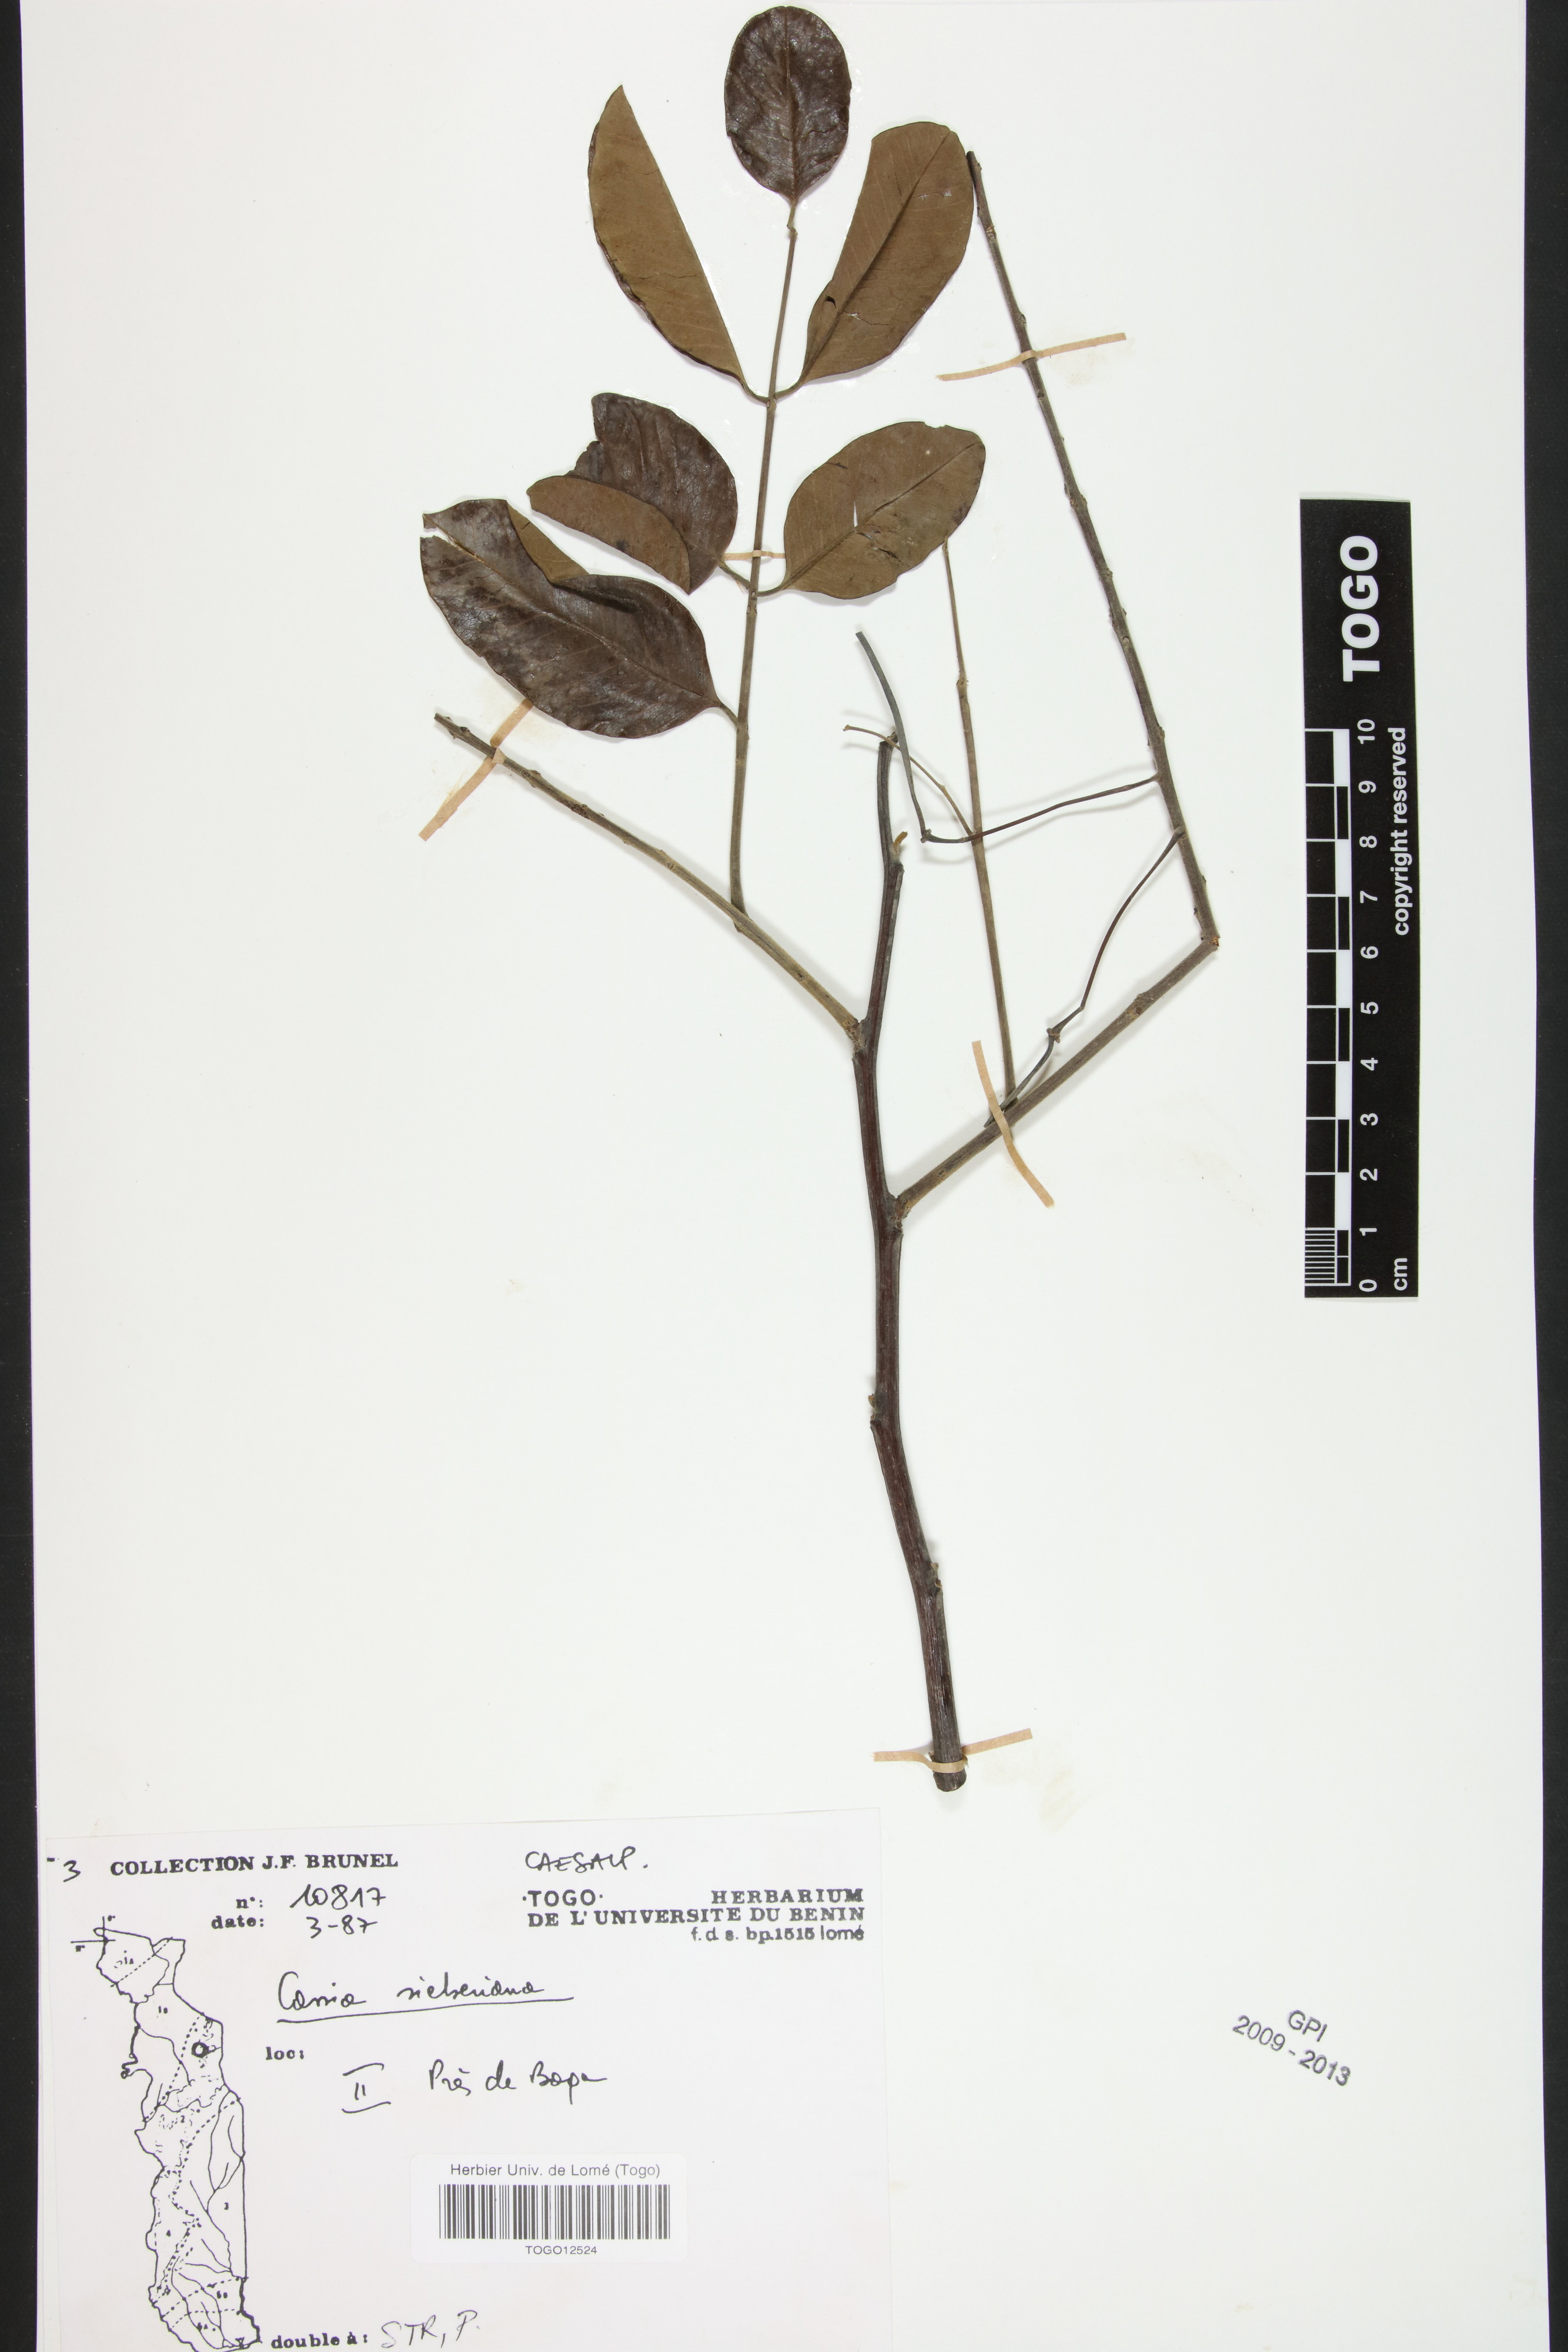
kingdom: Plantae
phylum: Tracheophyta
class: Magnoliopsida
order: Fabales
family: Fabaceae
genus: Cassia
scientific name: Cassia sieberiana
